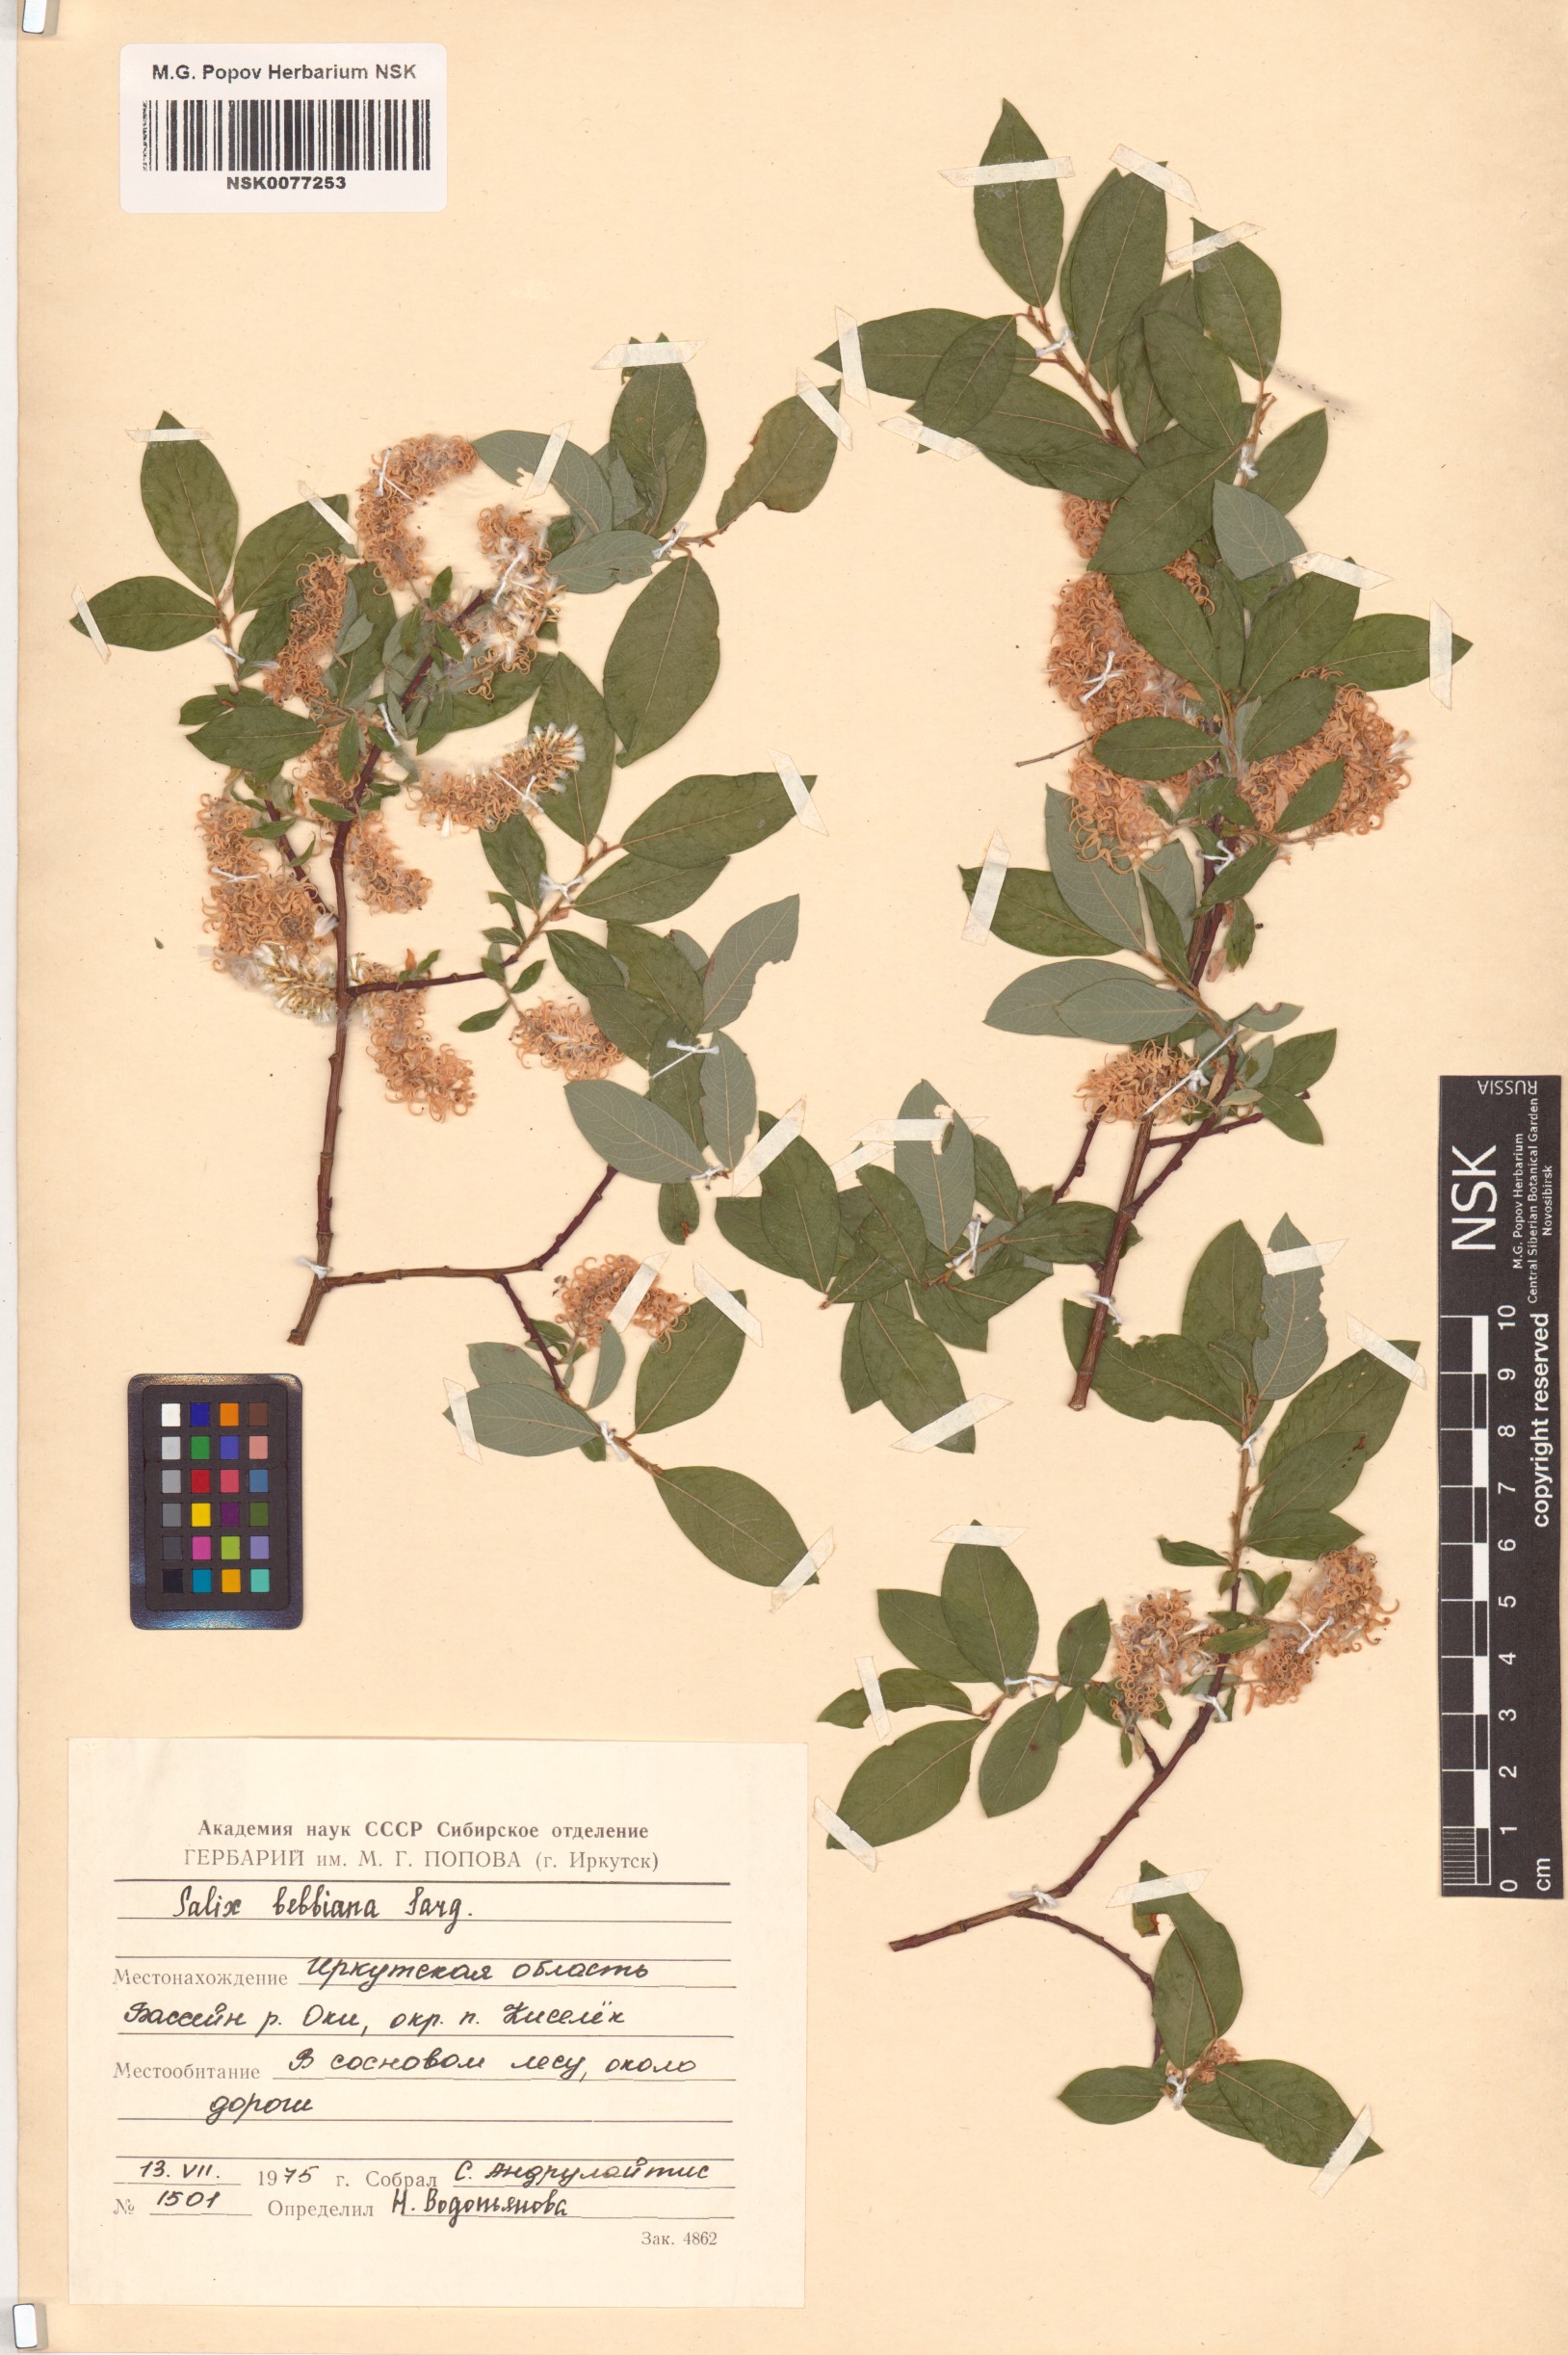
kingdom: Plantae
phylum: Tracheophyta
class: Magnoliopsida
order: Malpighiales
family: Salicaceae
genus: Salix
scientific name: Salix bebbiana
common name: Bebb's willow
